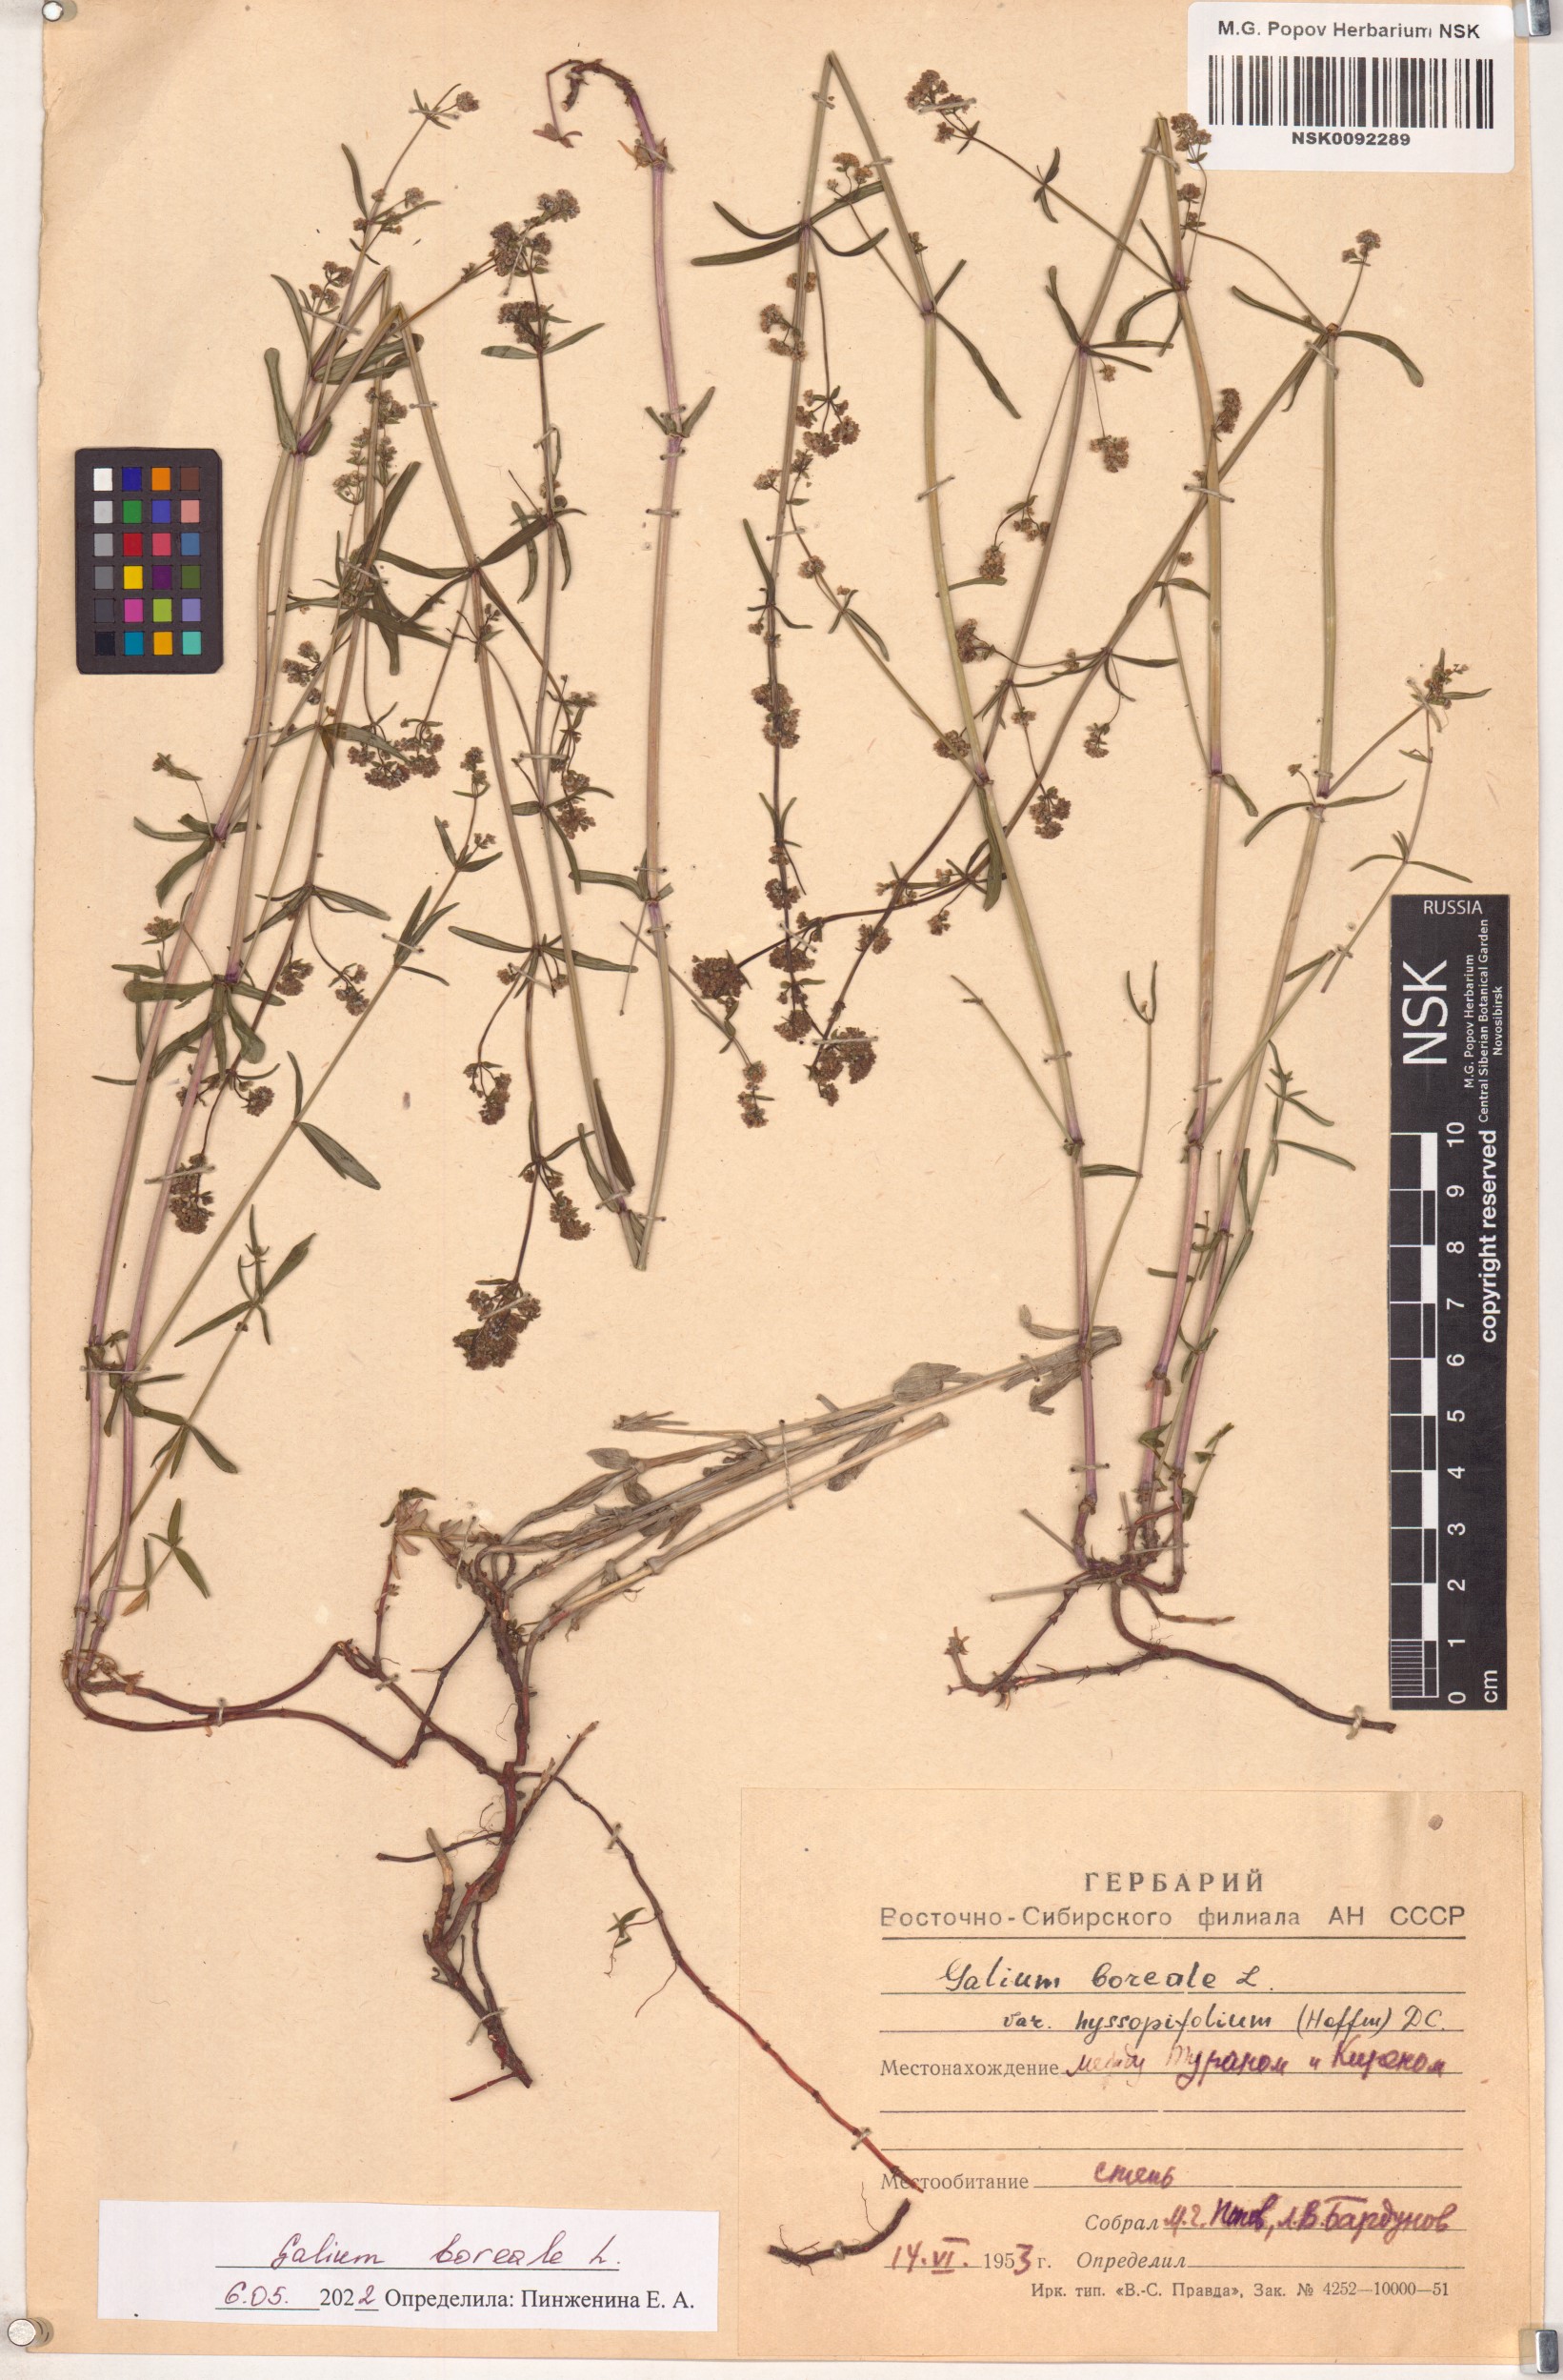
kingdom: Plantae
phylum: Tracheophyta
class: Magnoliopsida
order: Gentianales
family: Rubiaceae
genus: Galium
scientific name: Galium boreale
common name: Northern bedstraw
